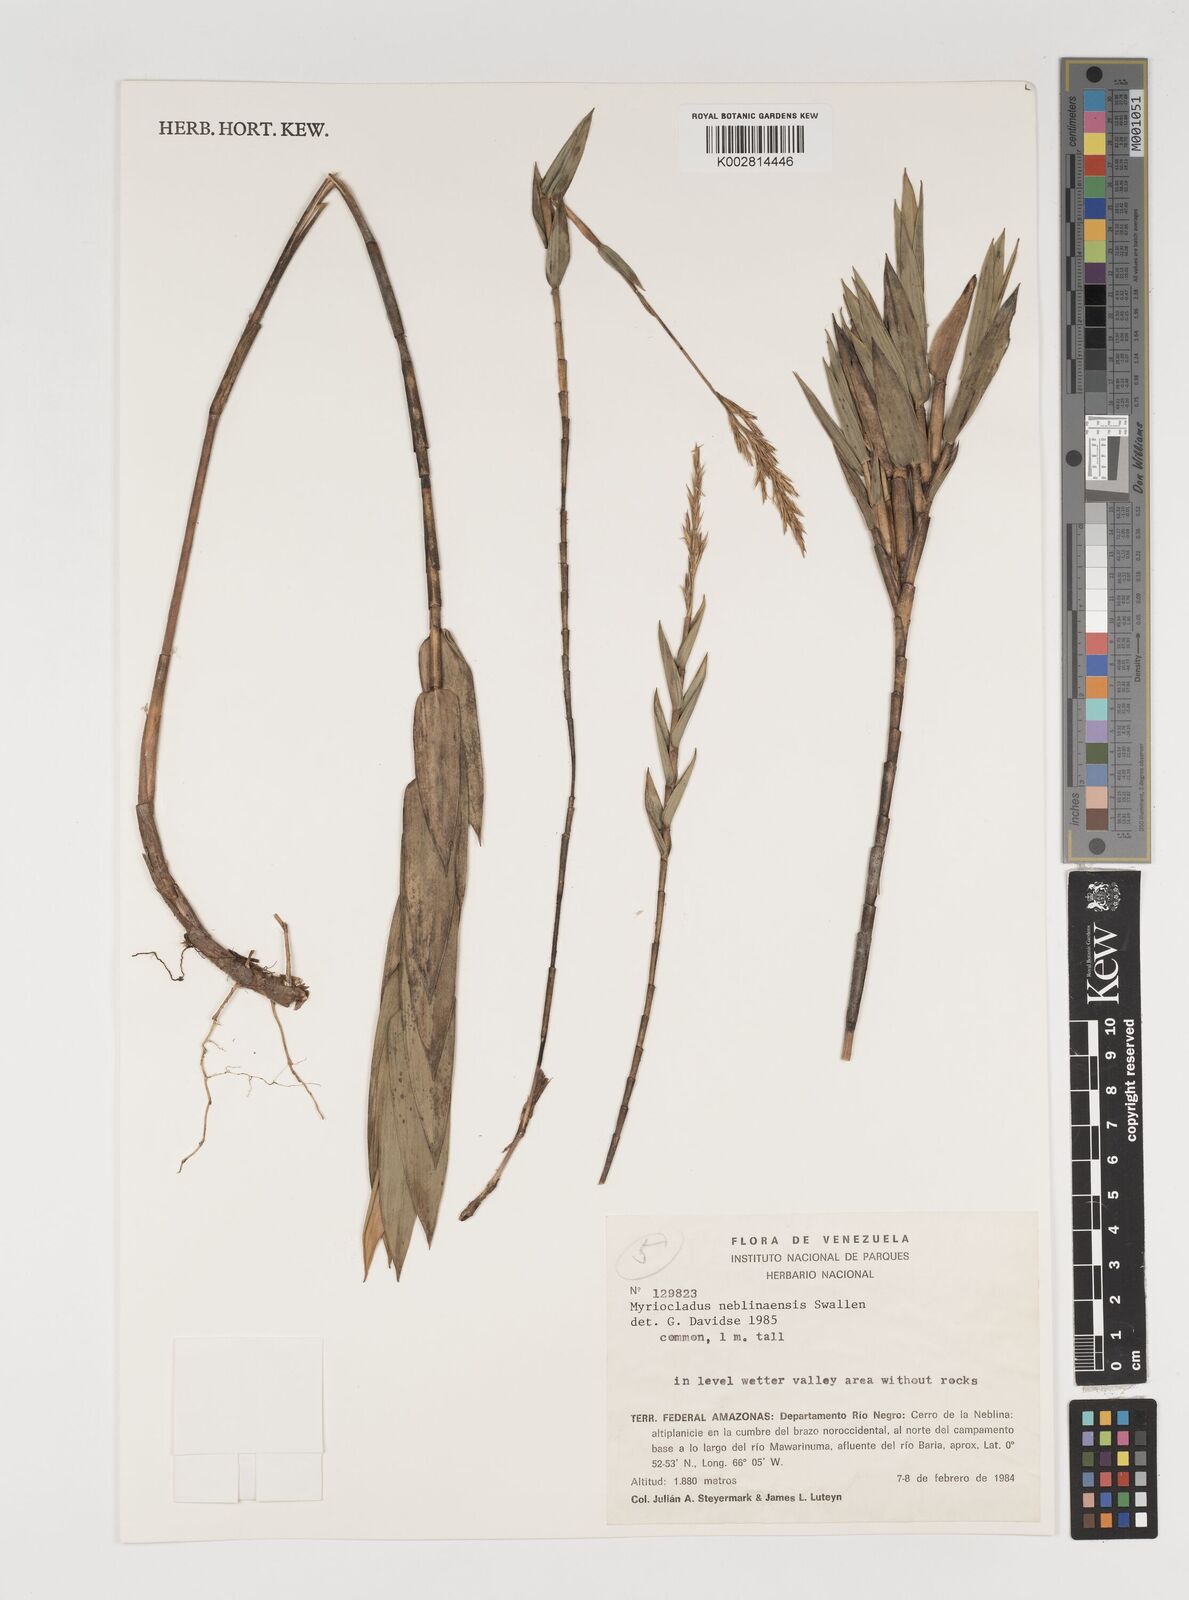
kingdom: Plantae
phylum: Tracheophyta
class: Liliopsida
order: Poales
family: Poaceae
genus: Myriocladus
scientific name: Myriocladus neblinaensis
